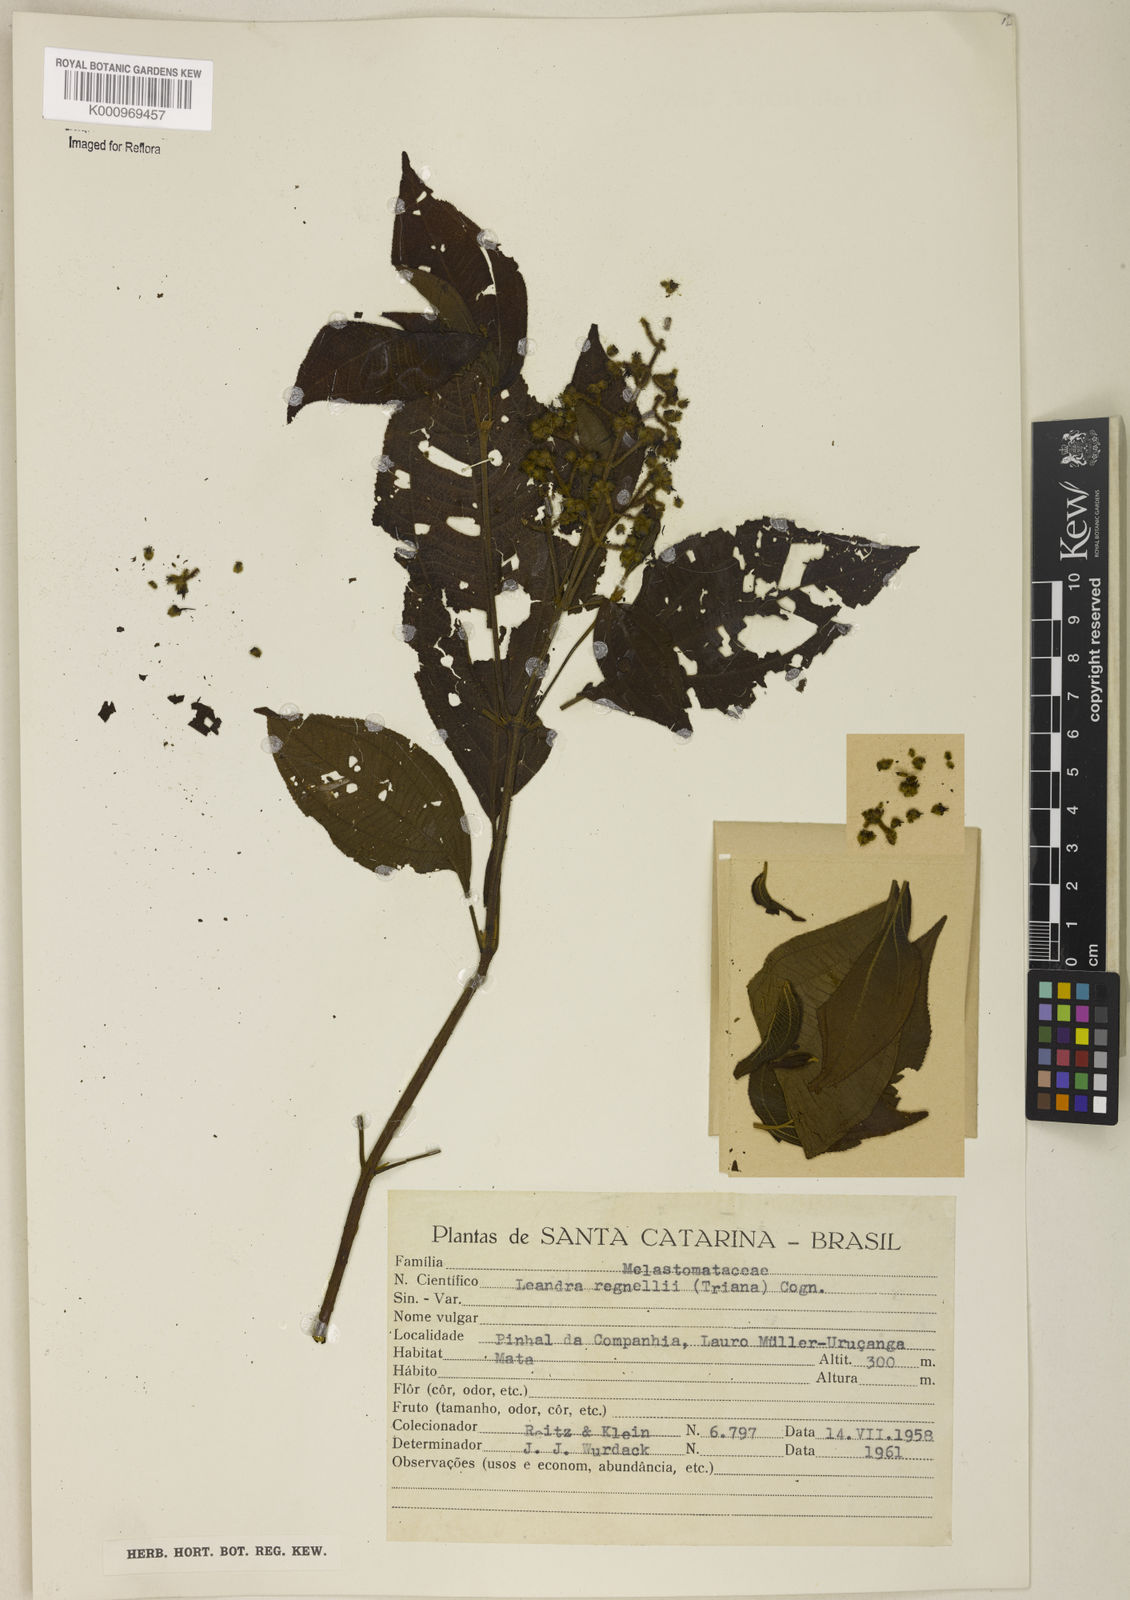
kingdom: Plantae
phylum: Tracheophyta
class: Magnoliopsida
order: Myrtales
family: Melastomataceae
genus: Miconia
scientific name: Miconia alterninervia
